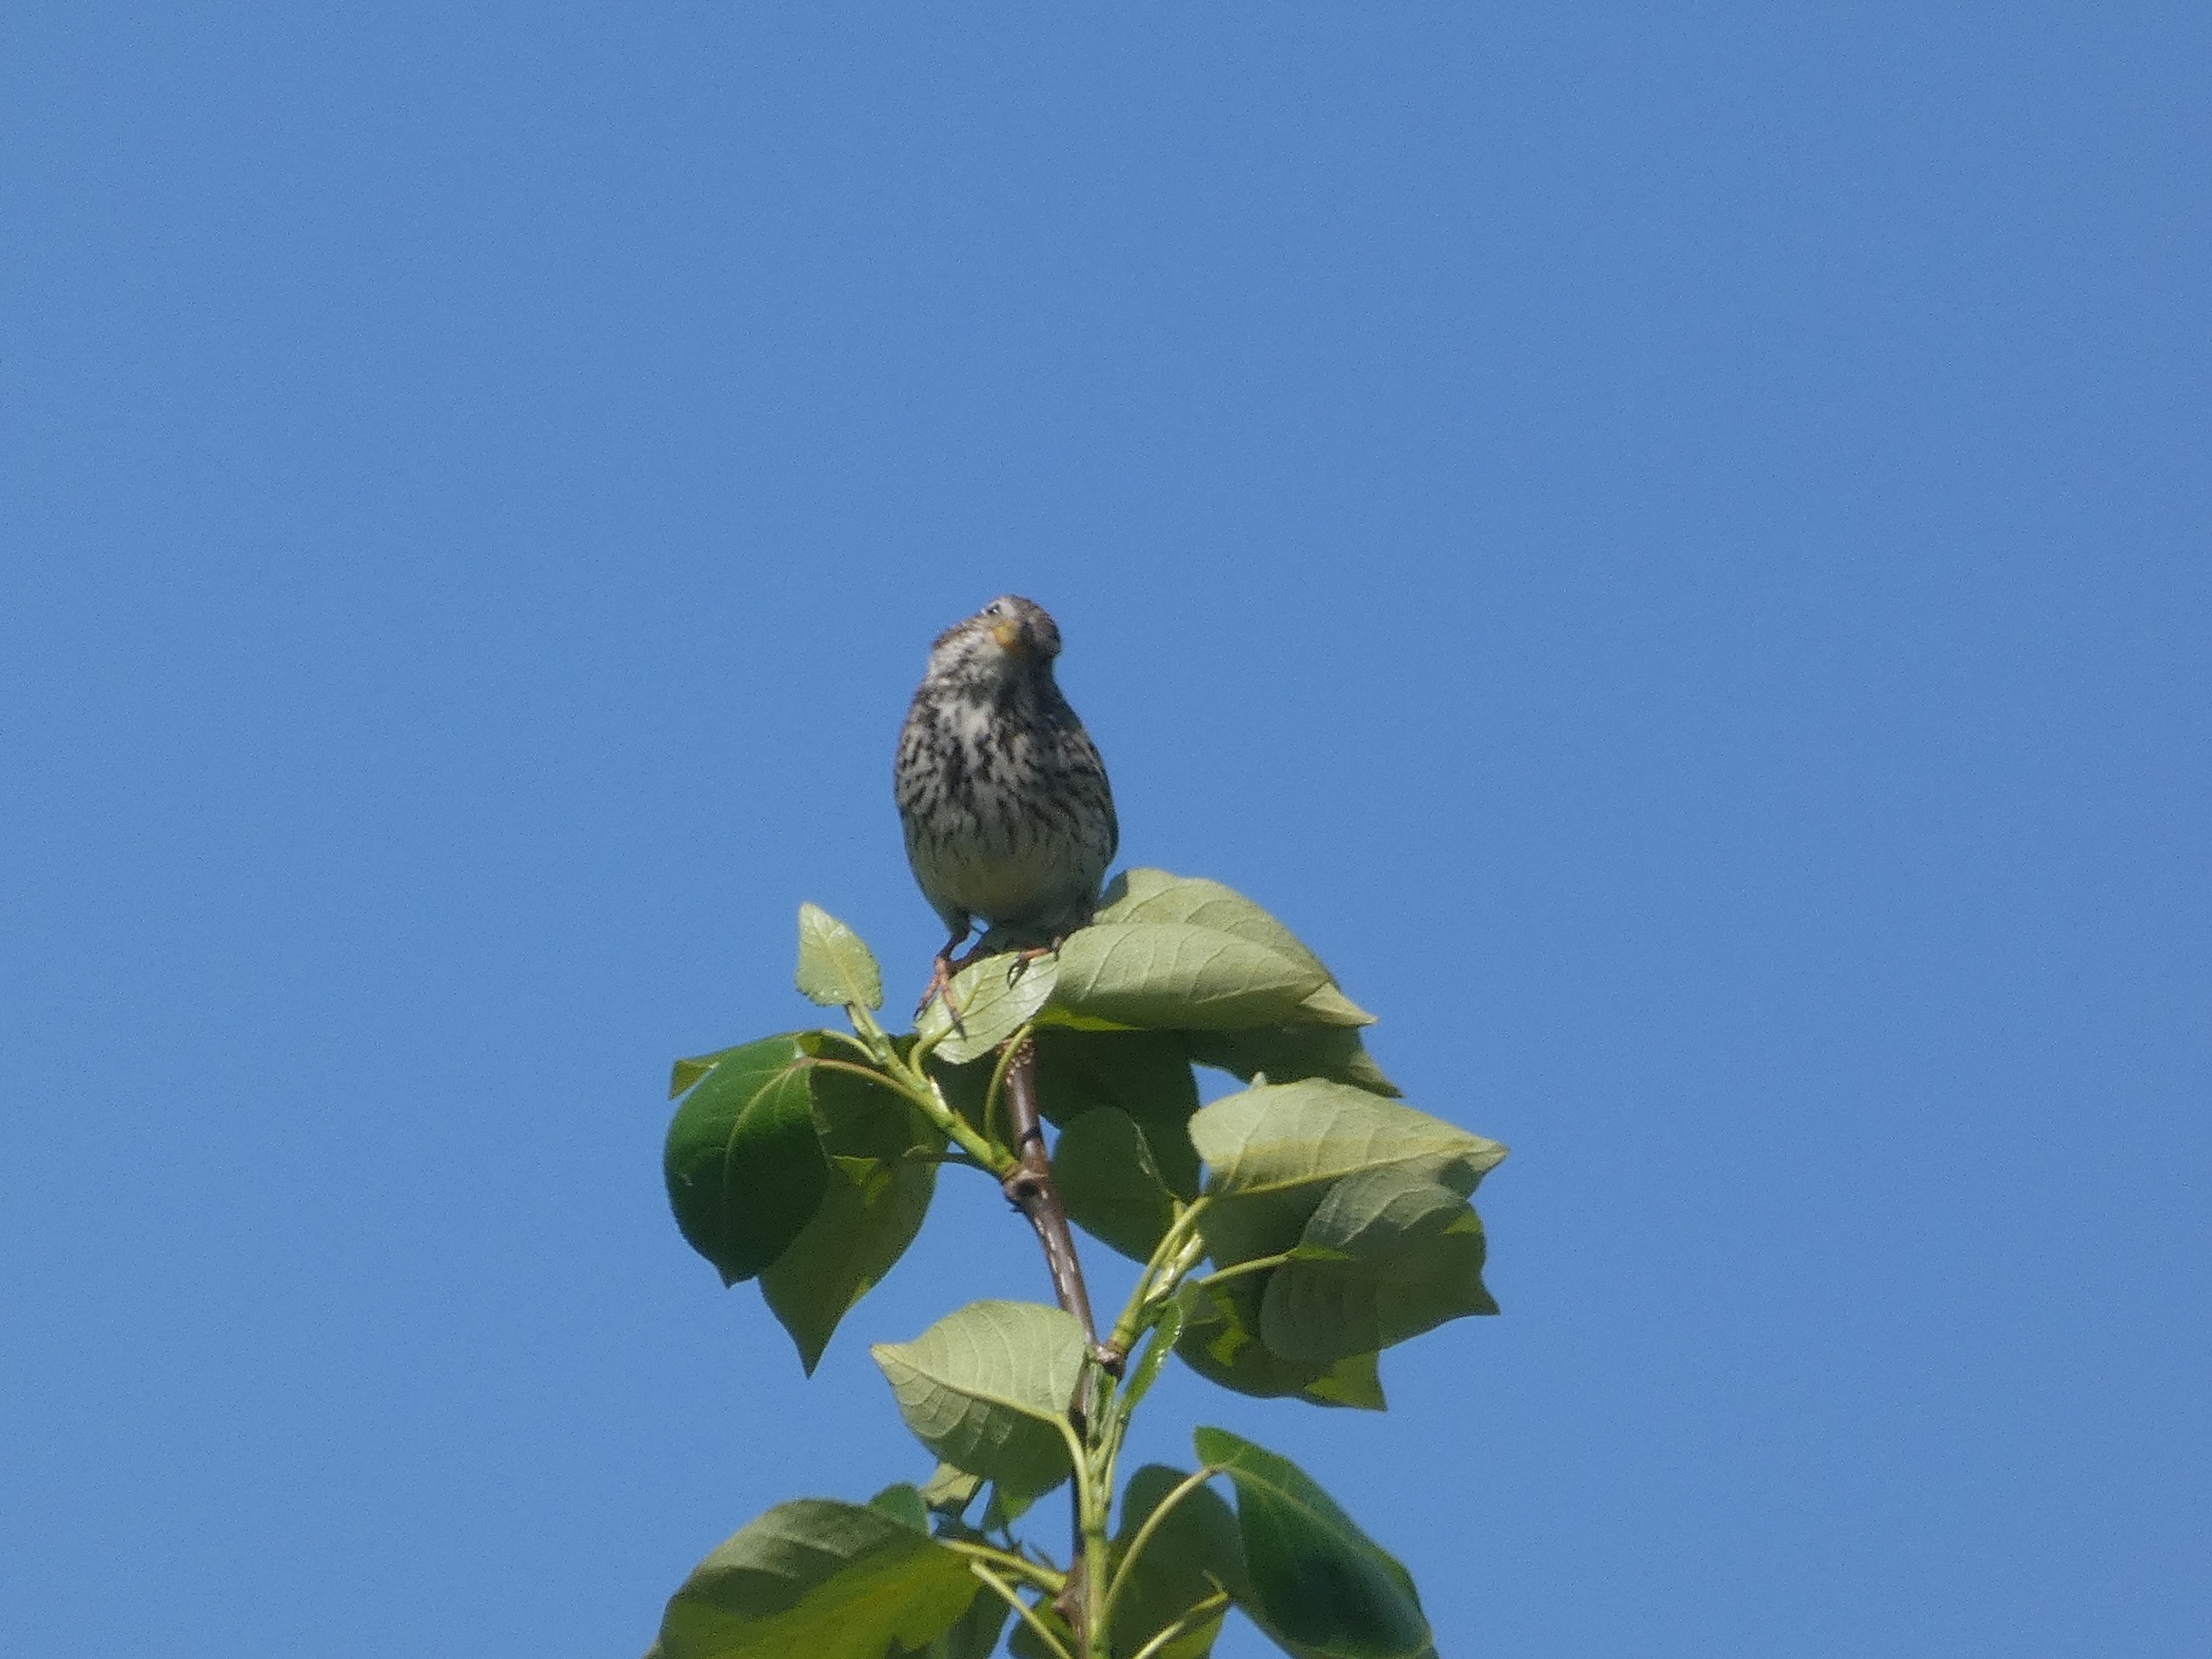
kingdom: Animalia
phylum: Chordata
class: Aves
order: Passeriformes
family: Emberizidae
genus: Emberiza
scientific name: Emberiza calandra
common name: Bomlærke
